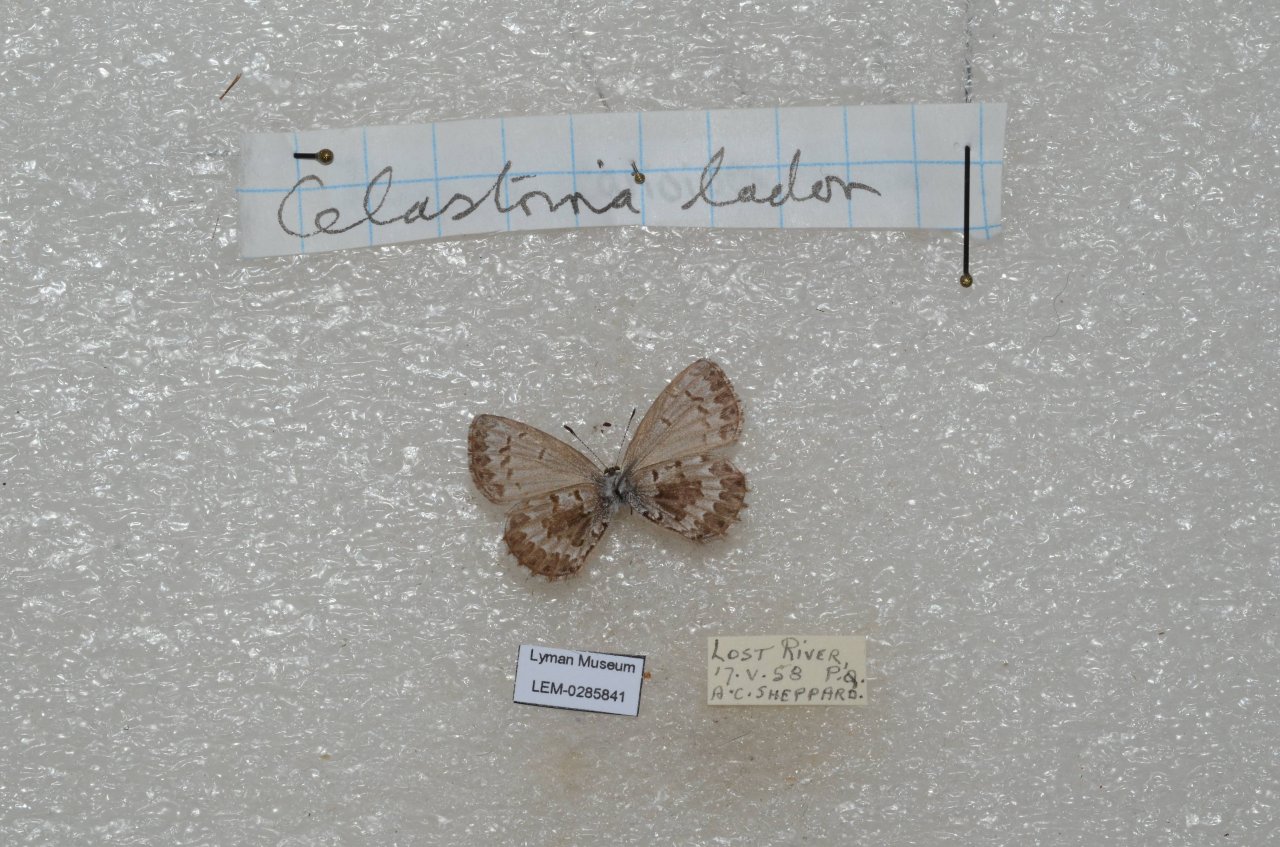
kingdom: Animalia
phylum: Arthropoda
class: Insecta
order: Lepidoptera
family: Lycaenidae
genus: Celastrina
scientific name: Celastrina lucia
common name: Northern Spring Azure
